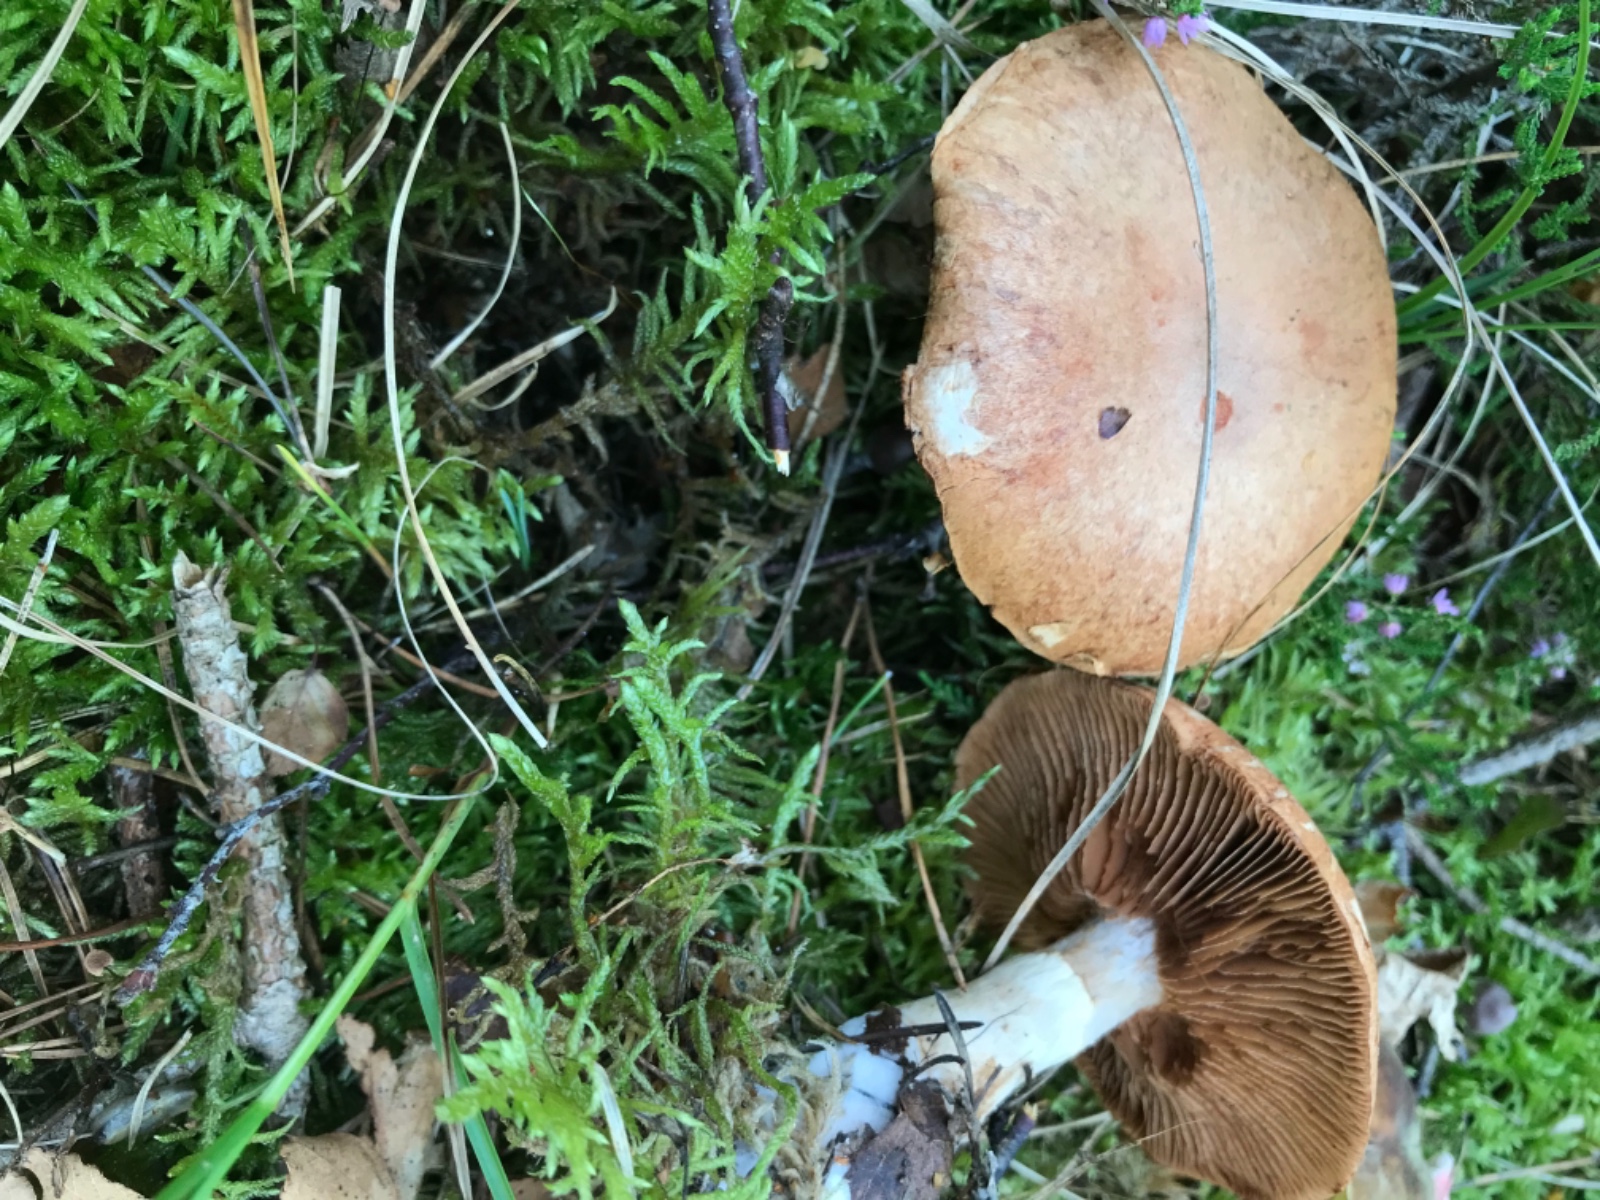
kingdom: Fungi
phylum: Basidiomycota
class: Agaricomycetes
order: Agaricales
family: Cortinariaceae
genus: Cortinarius
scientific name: Cortinarius alborufescens
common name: flosset slørhat
